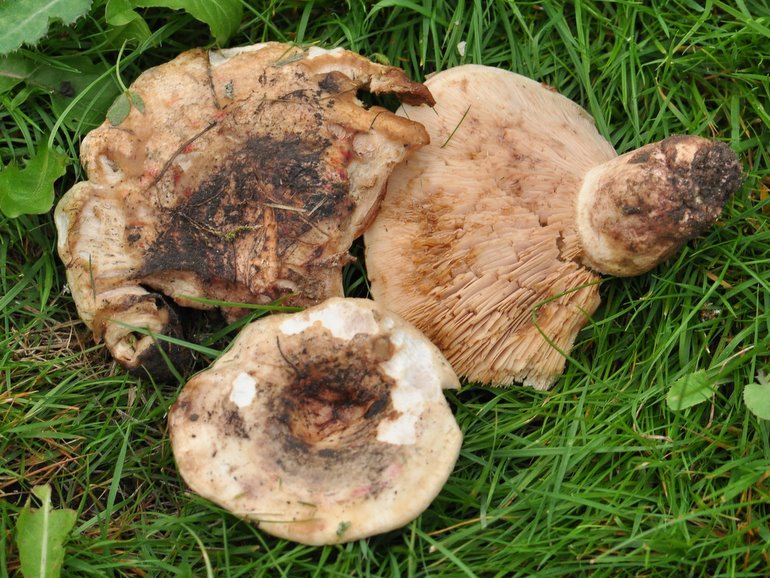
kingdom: Fungi
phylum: Basidiomycota
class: Agaricomycetes
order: Russulales
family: Russulaceae
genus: Lactarius
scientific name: Lactarius controversus
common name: rosabladet mælkehat
